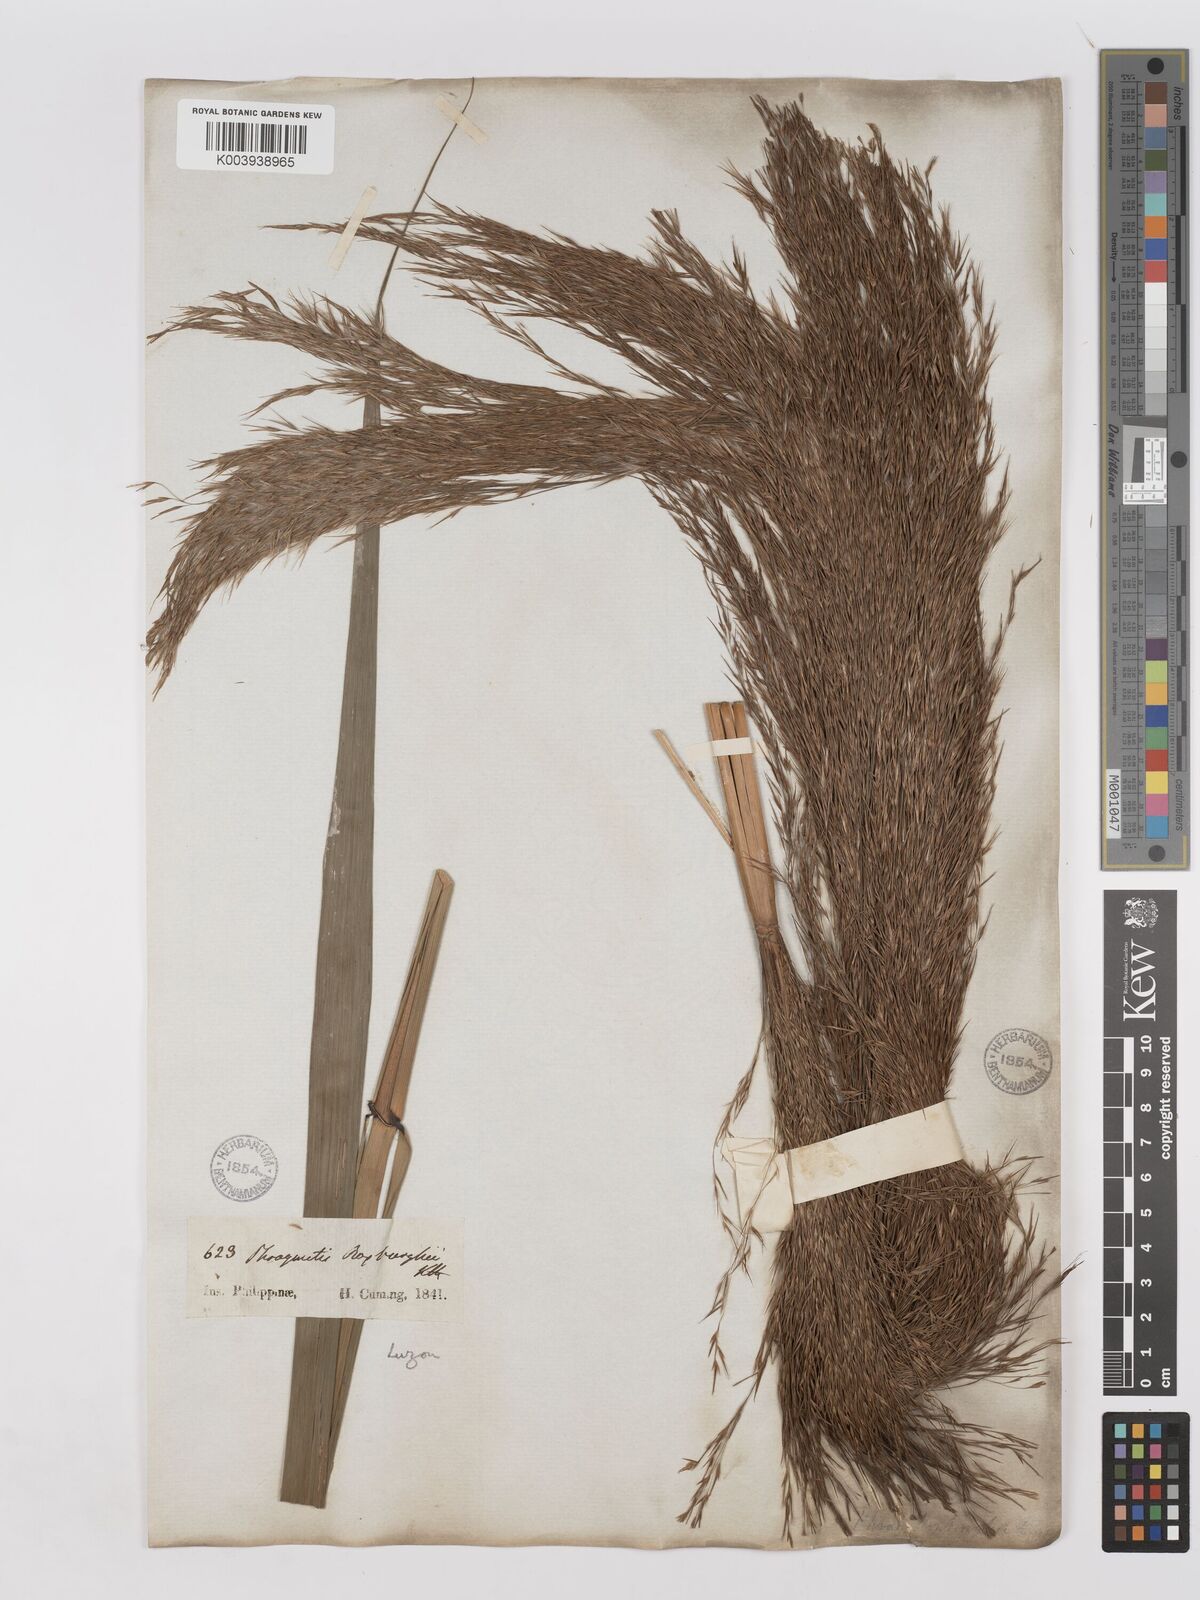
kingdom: Plantae
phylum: Tracheophyta
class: Liliopsida
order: Poales
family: Poaceae
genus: Phragmites
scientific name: Phragmites karka
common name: Tropical reed
